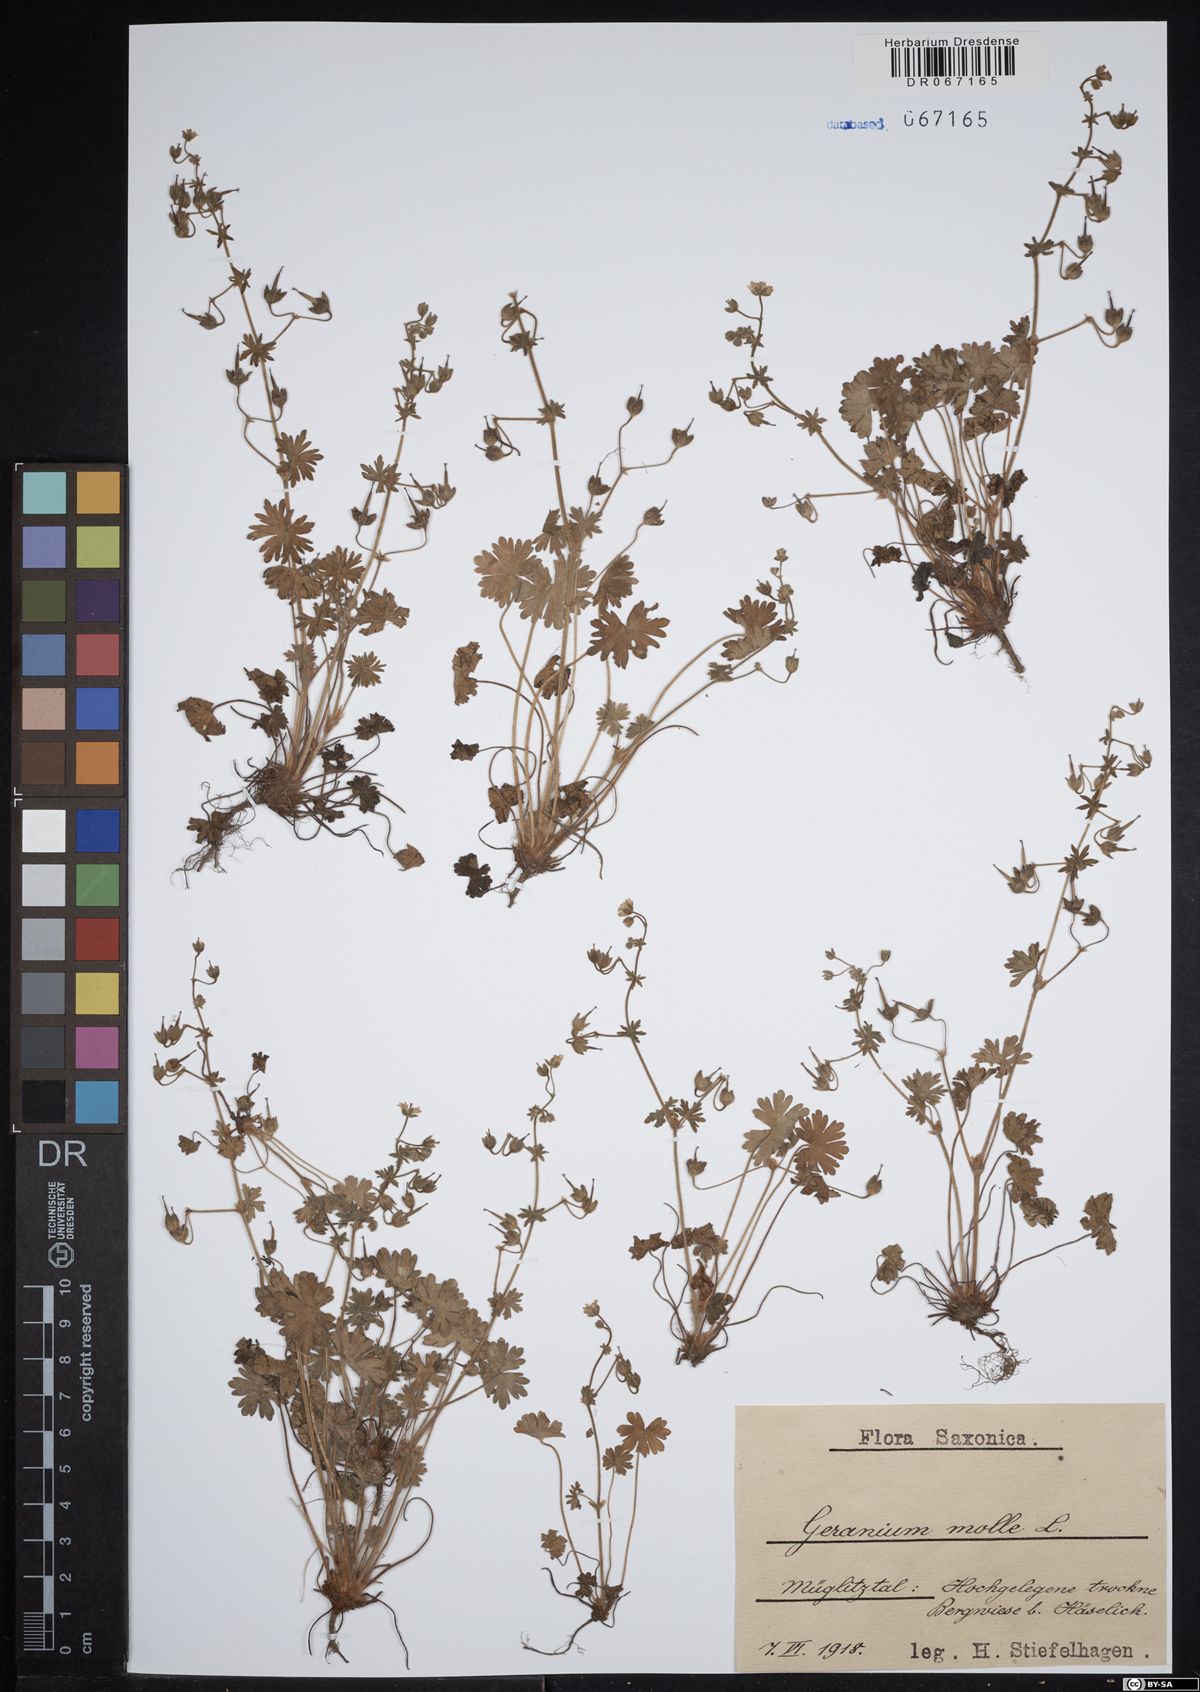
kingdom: Plantae
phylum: Tracheophyta
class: Magnoliopsida
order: Geraniales
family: Geraniaceae
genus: Geranium
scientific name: Geranium molle
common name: Dove's-foot crane's-bill
